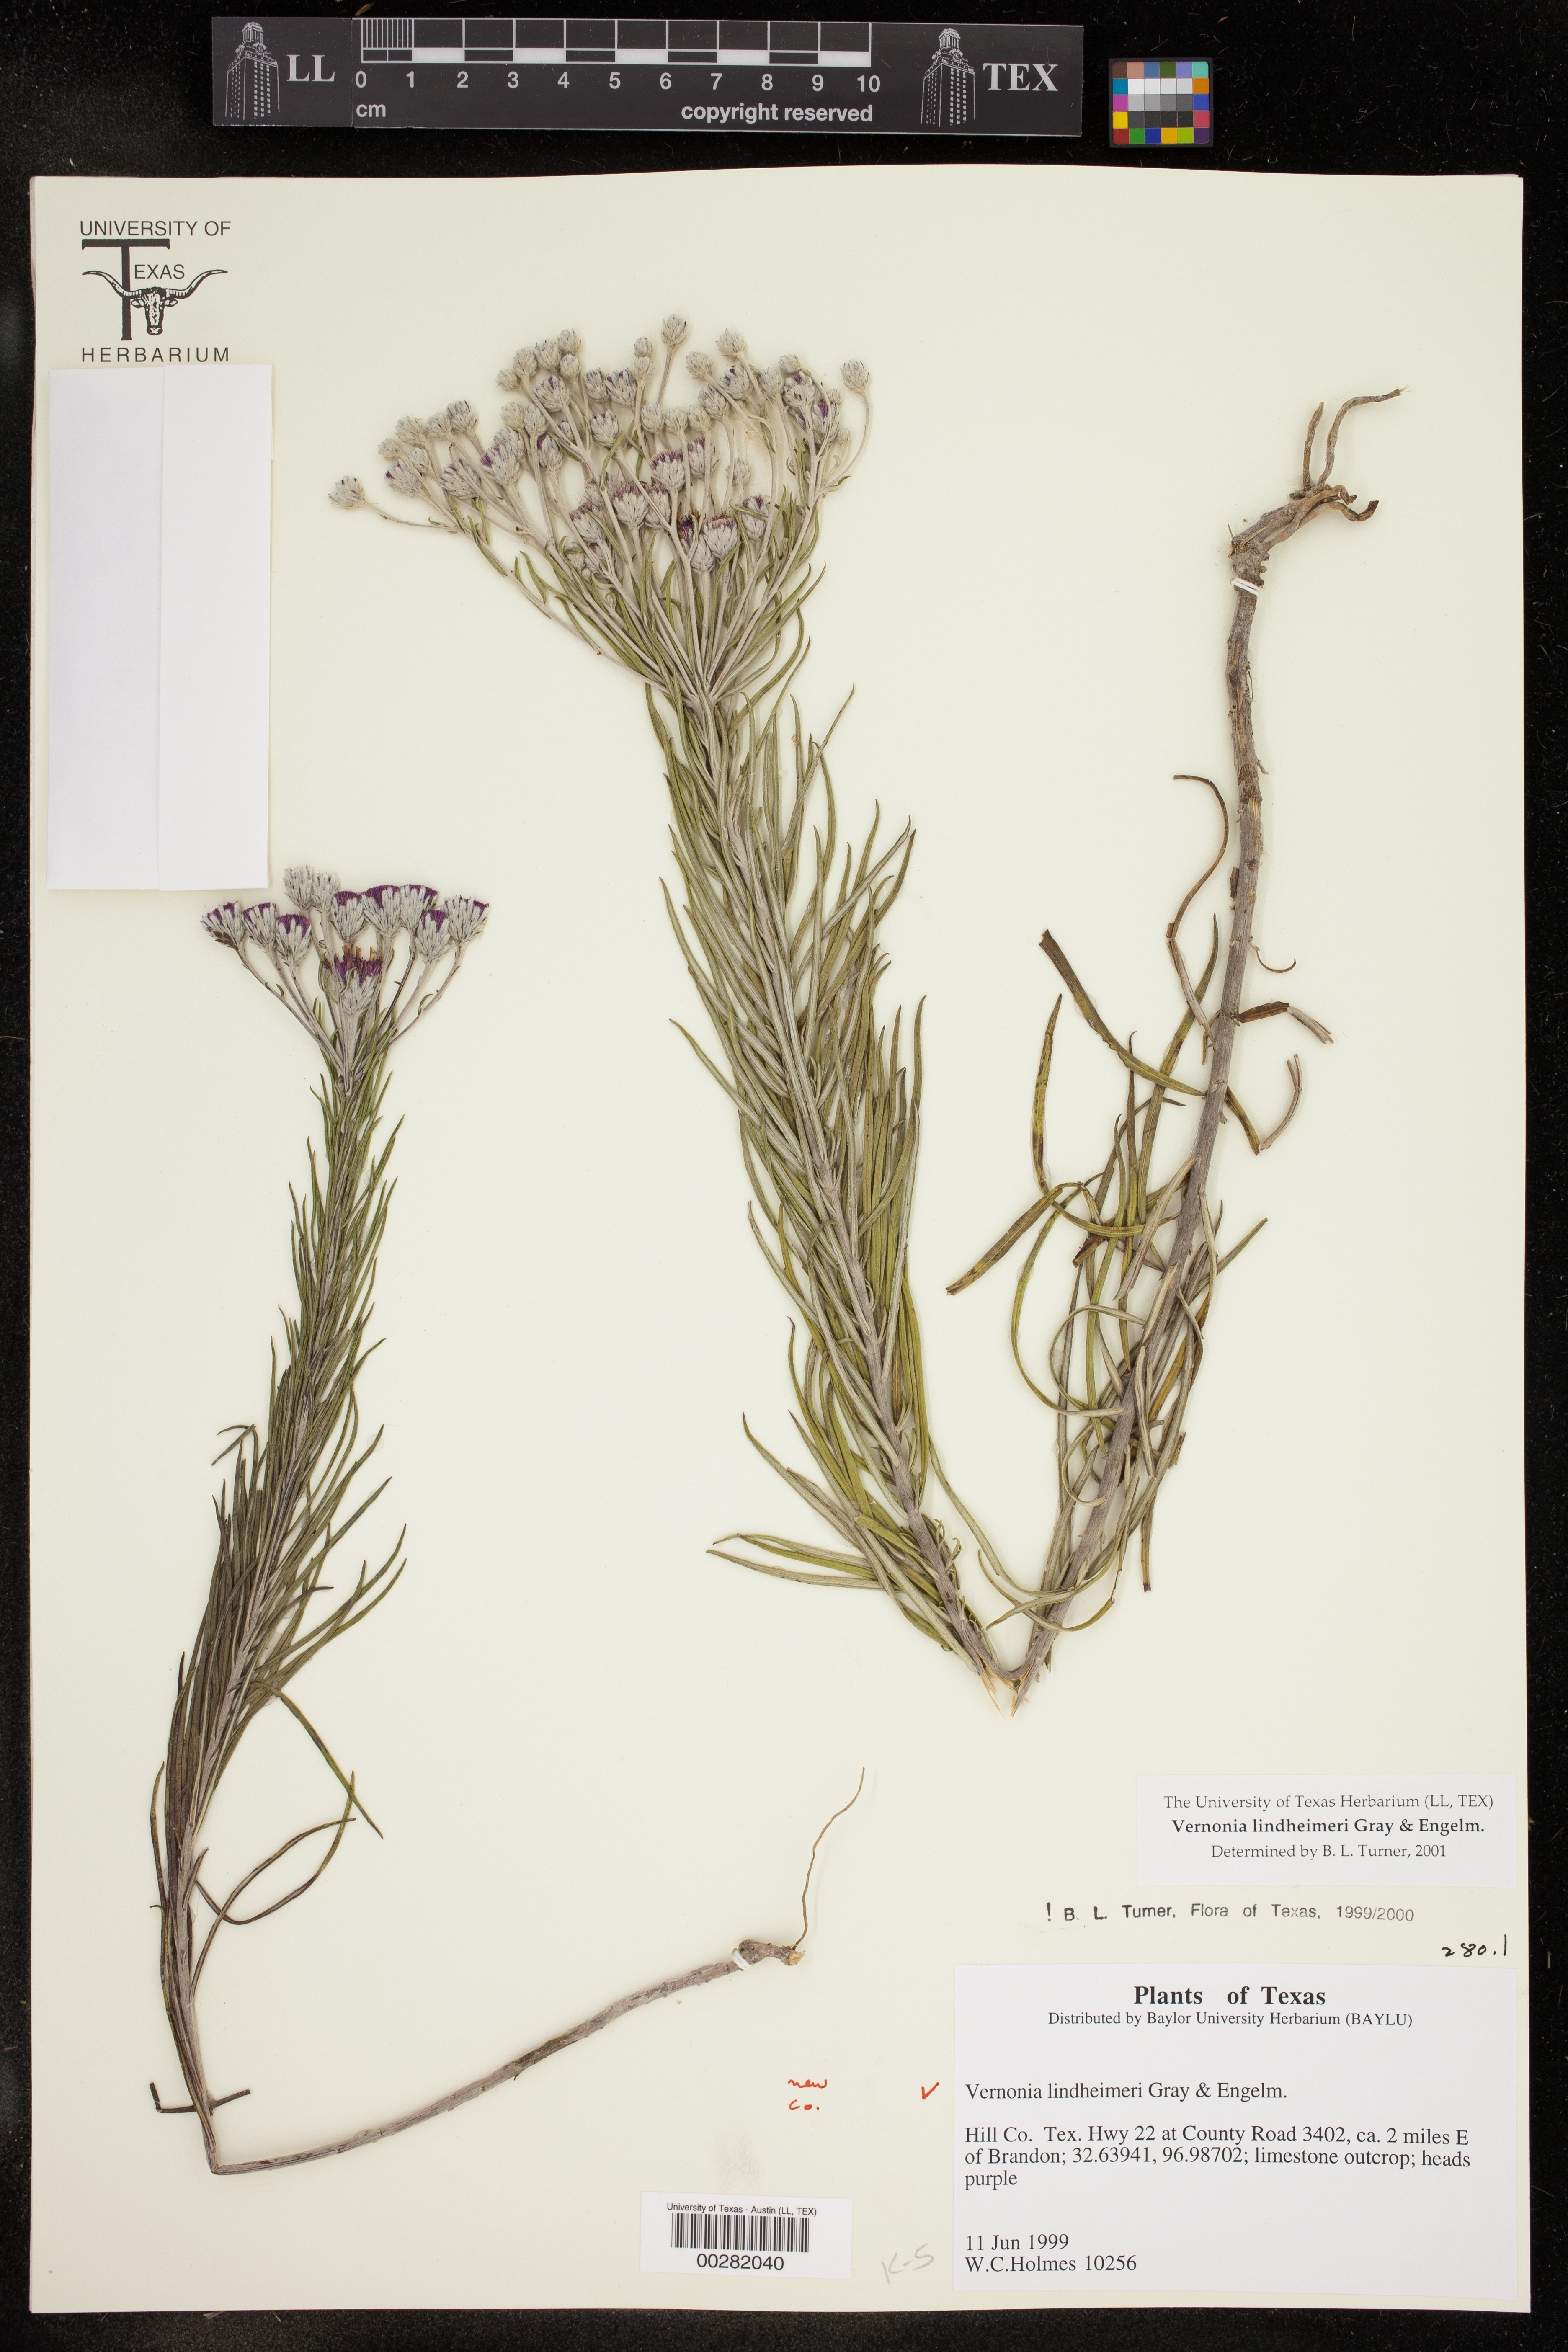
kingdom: Plantae
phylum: Tracheophyta
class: Magnoliopsida
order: Asterales
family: Asteraceae
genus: Vernonia
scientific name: Vernonia lindheimeri
